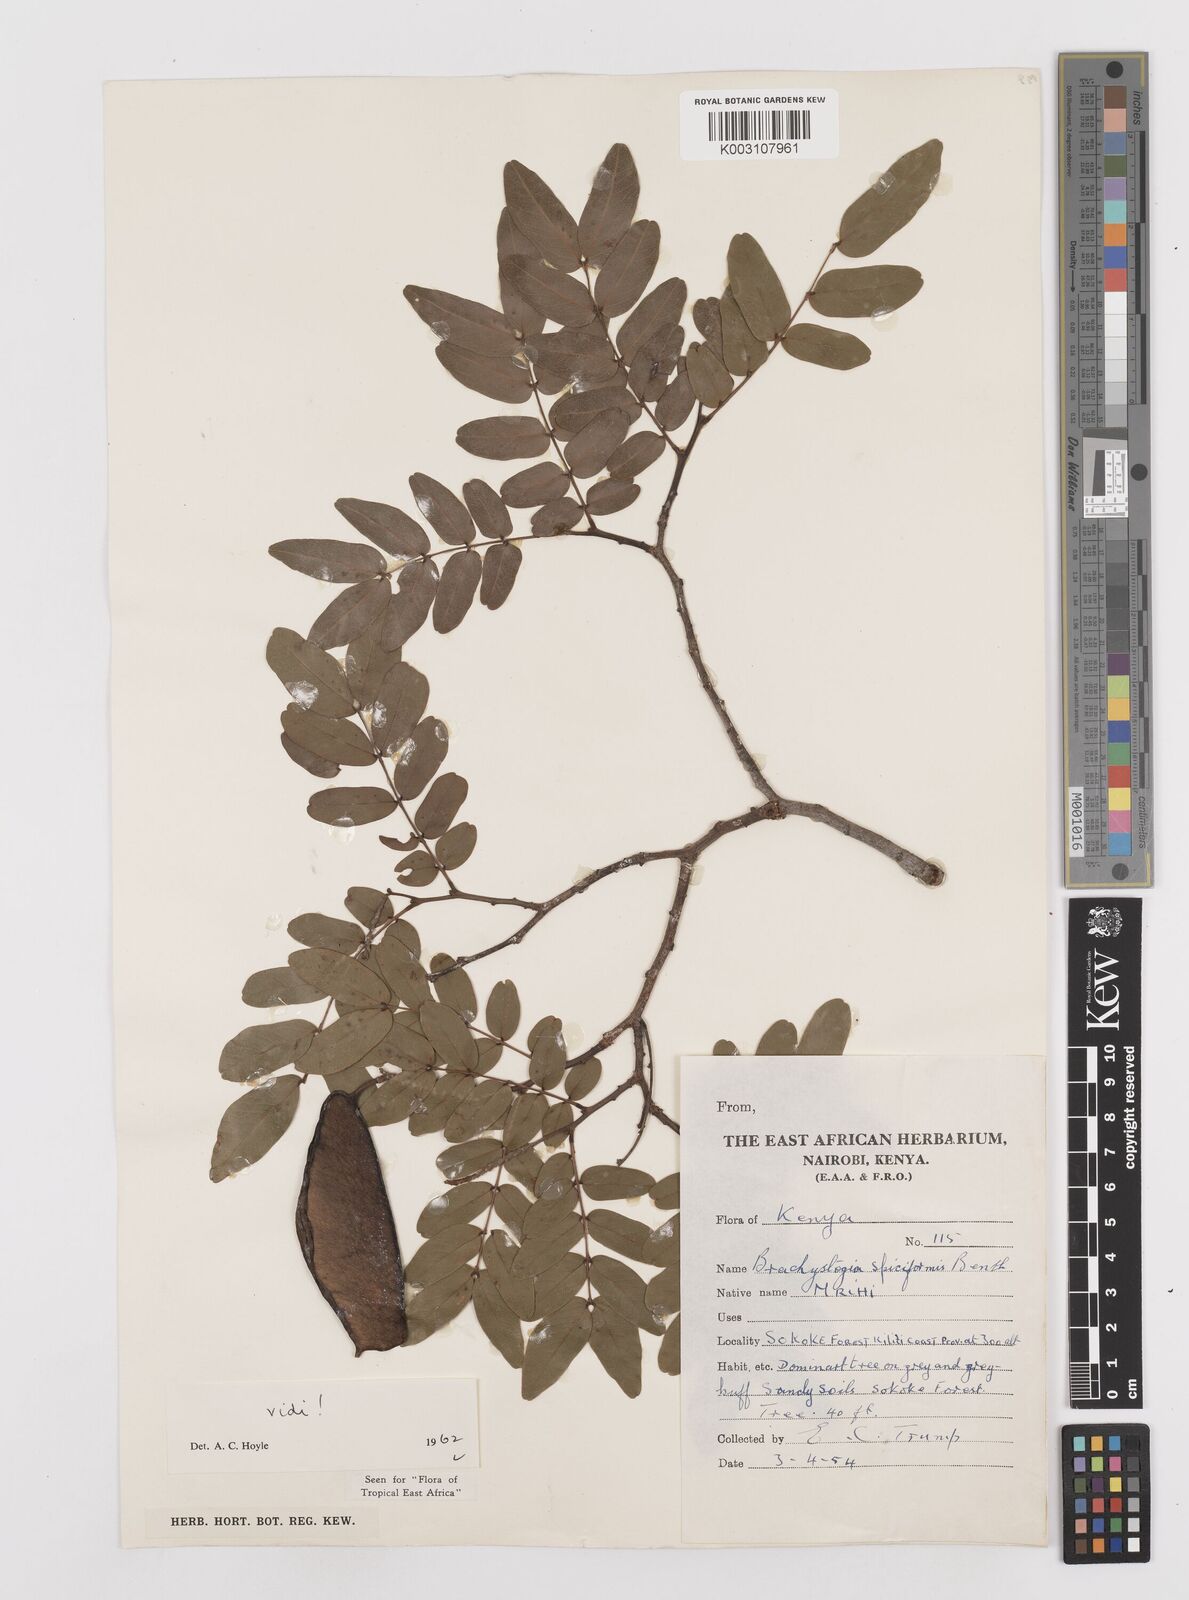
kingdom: Plantae
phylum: Tracheophyta
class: Magnoliopsida
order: Fabales
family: Fabaceae
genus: Brachystegia
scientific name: Brachystegia spiciformis
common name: Zebrawood
